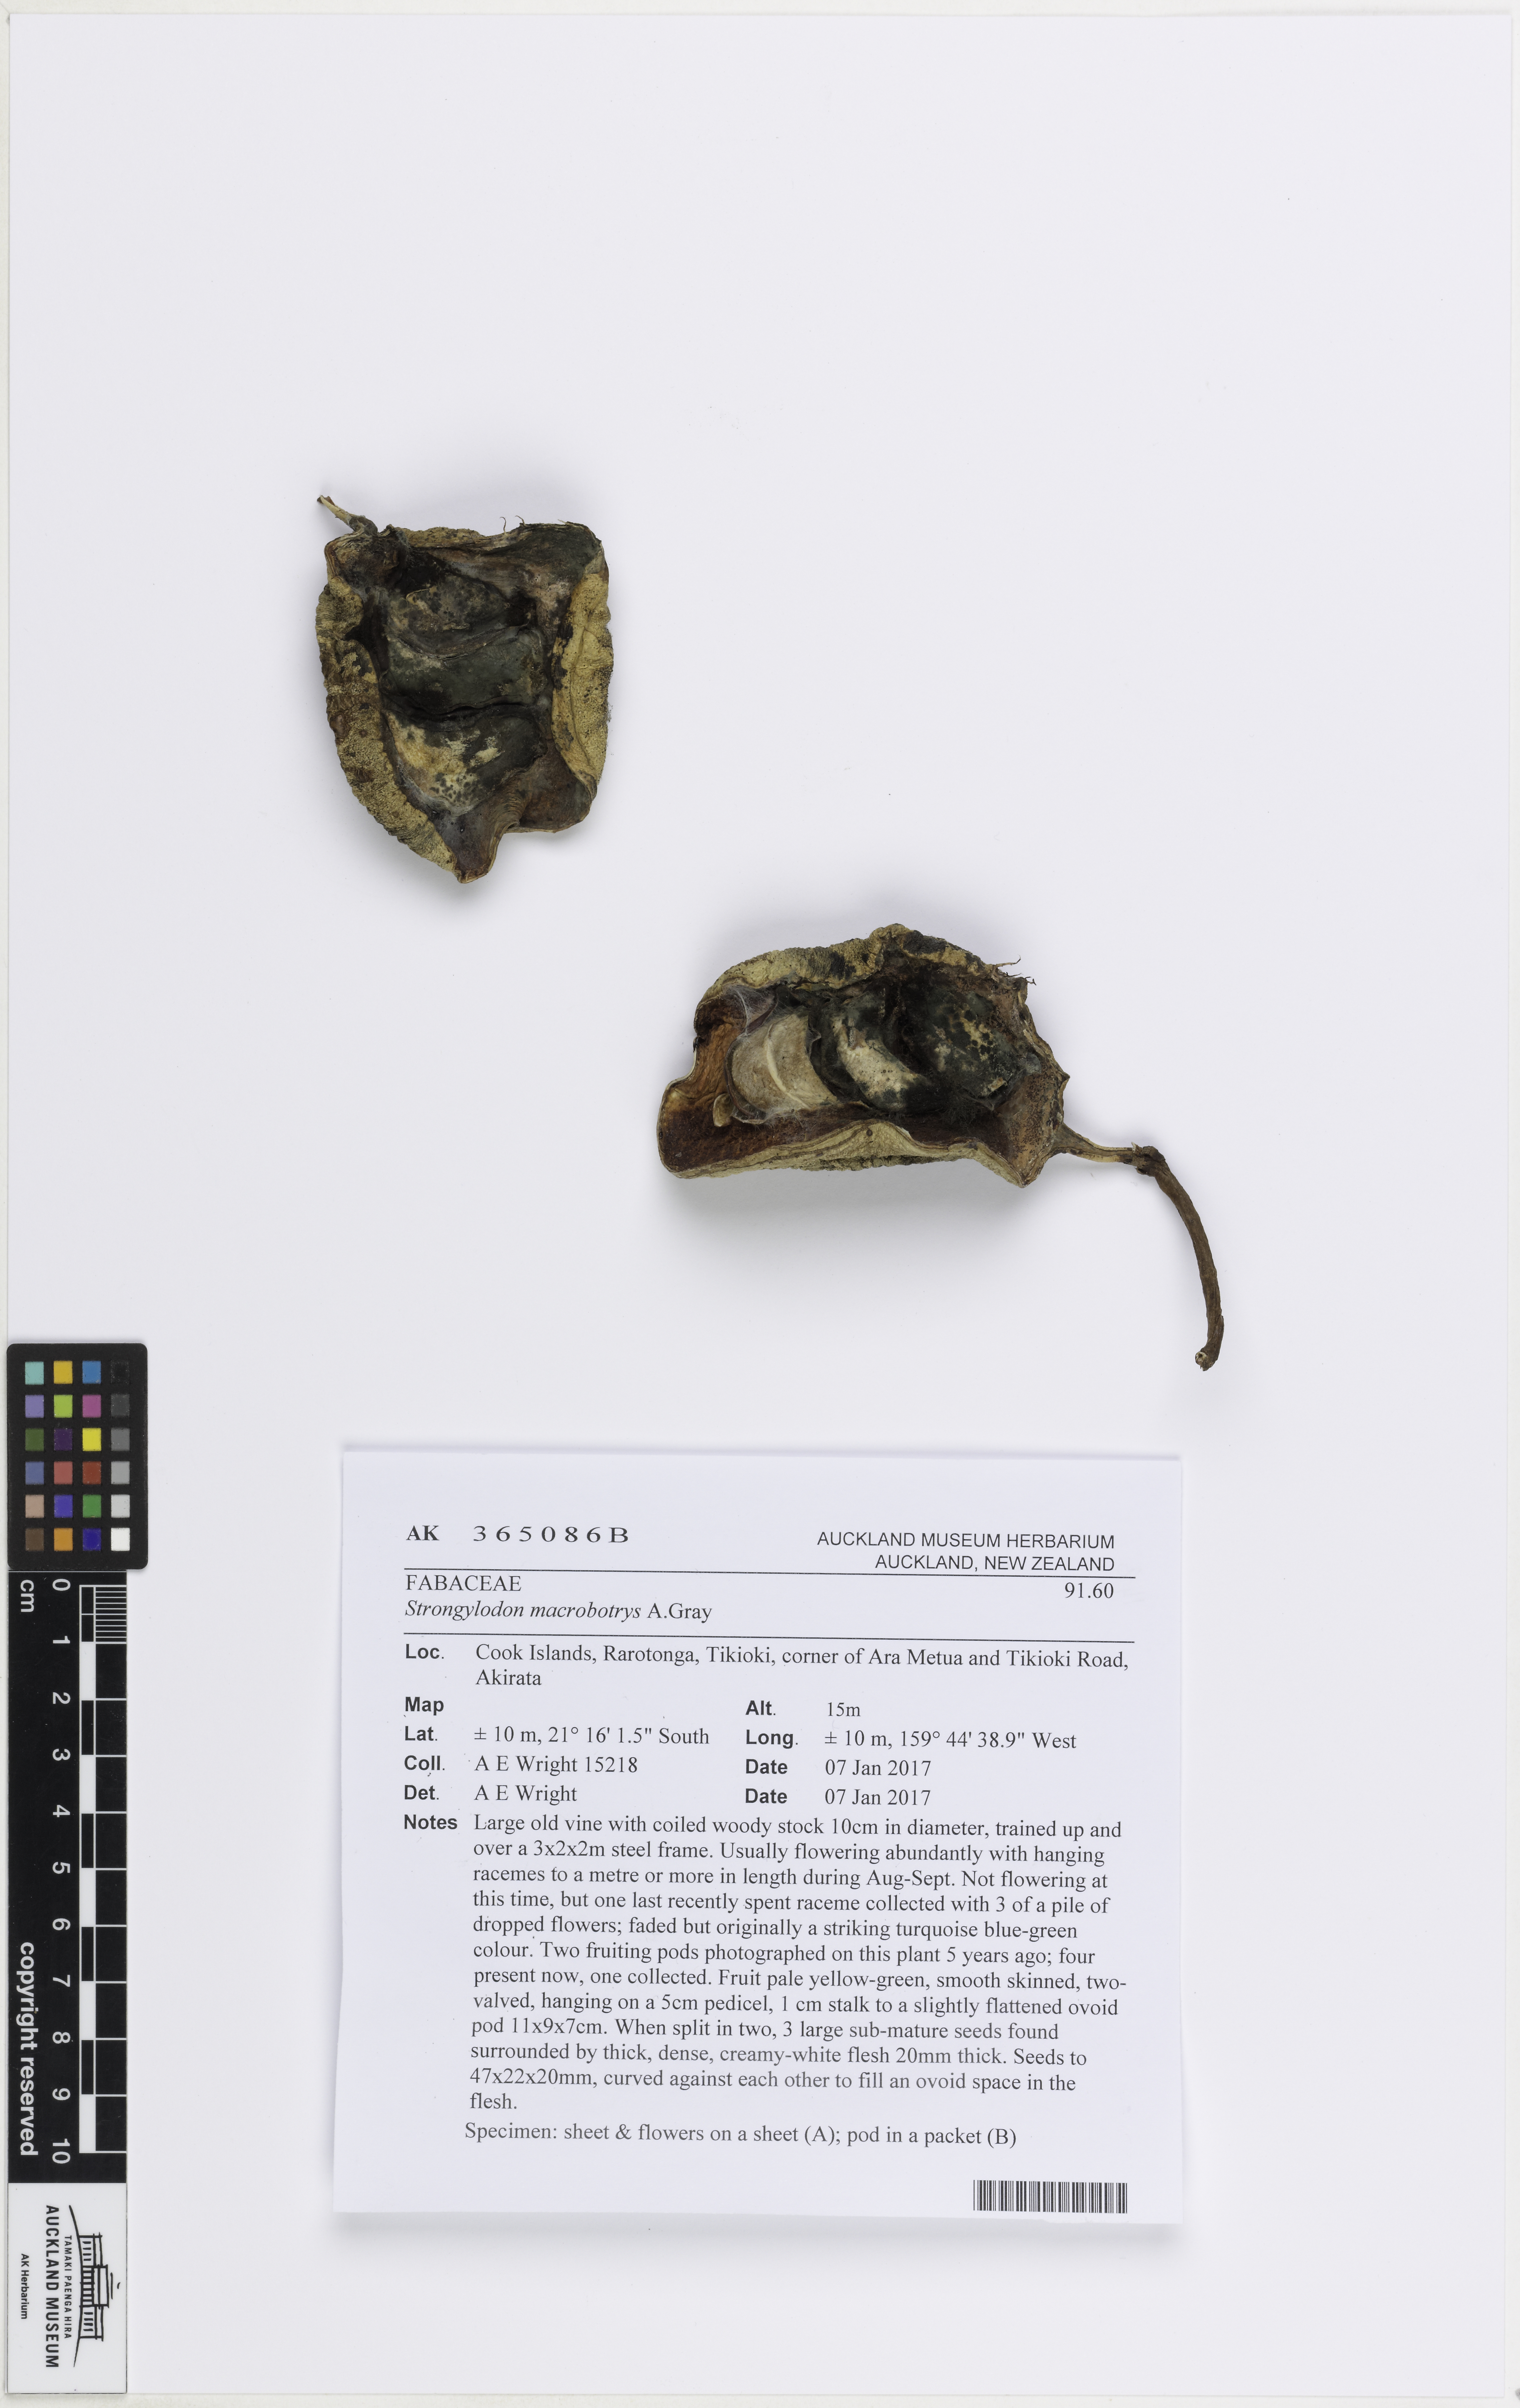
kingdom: Plantae
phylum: Tracheophyta
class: Magnoliopsida
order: Fabales
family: Fabaceae
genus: Strongylodon
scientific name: Strongylodon macrobotrys
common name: Jadevine
